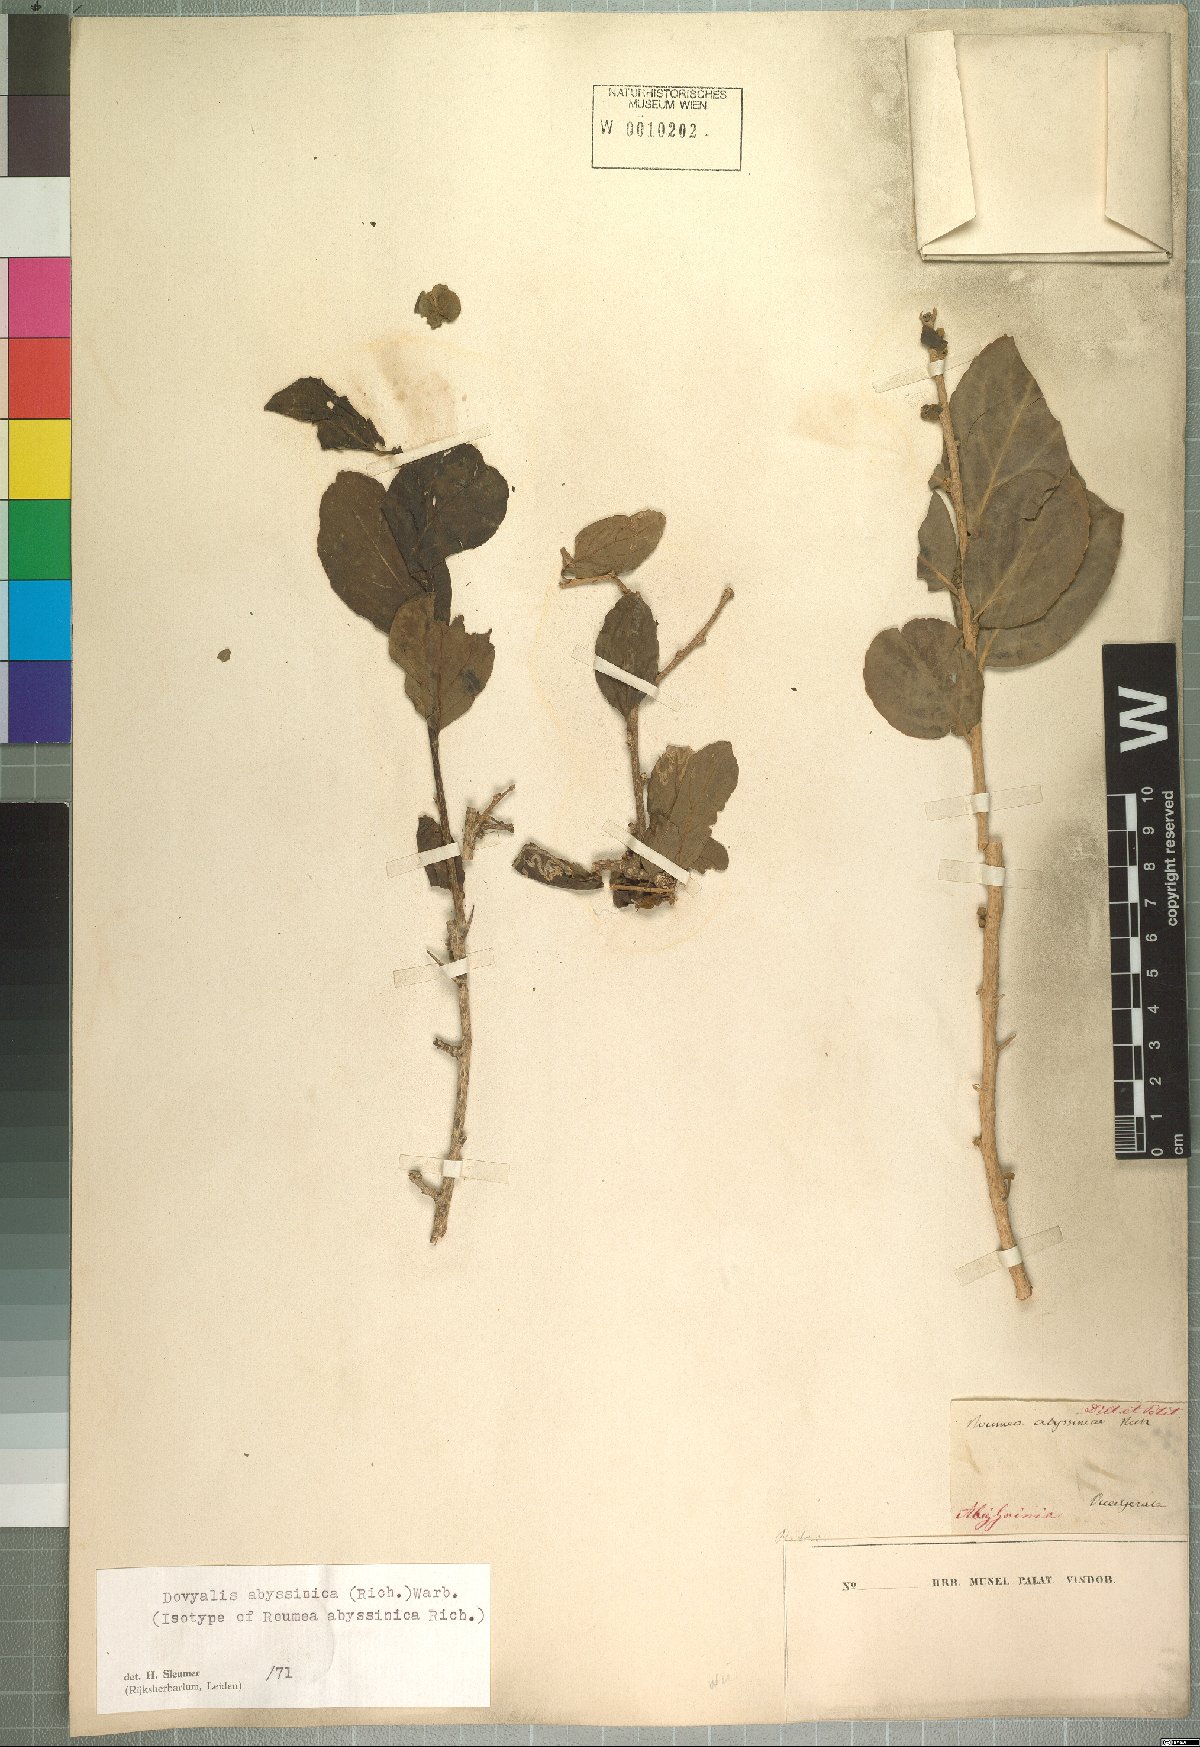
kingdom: Plantae
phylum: Tracheophyta
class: Magnoliopsida
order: Malpighiales
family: Salicaceae
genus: Dovyalis
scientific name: Dovyalis abyssinica
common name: Abyssinian-gooseberry
